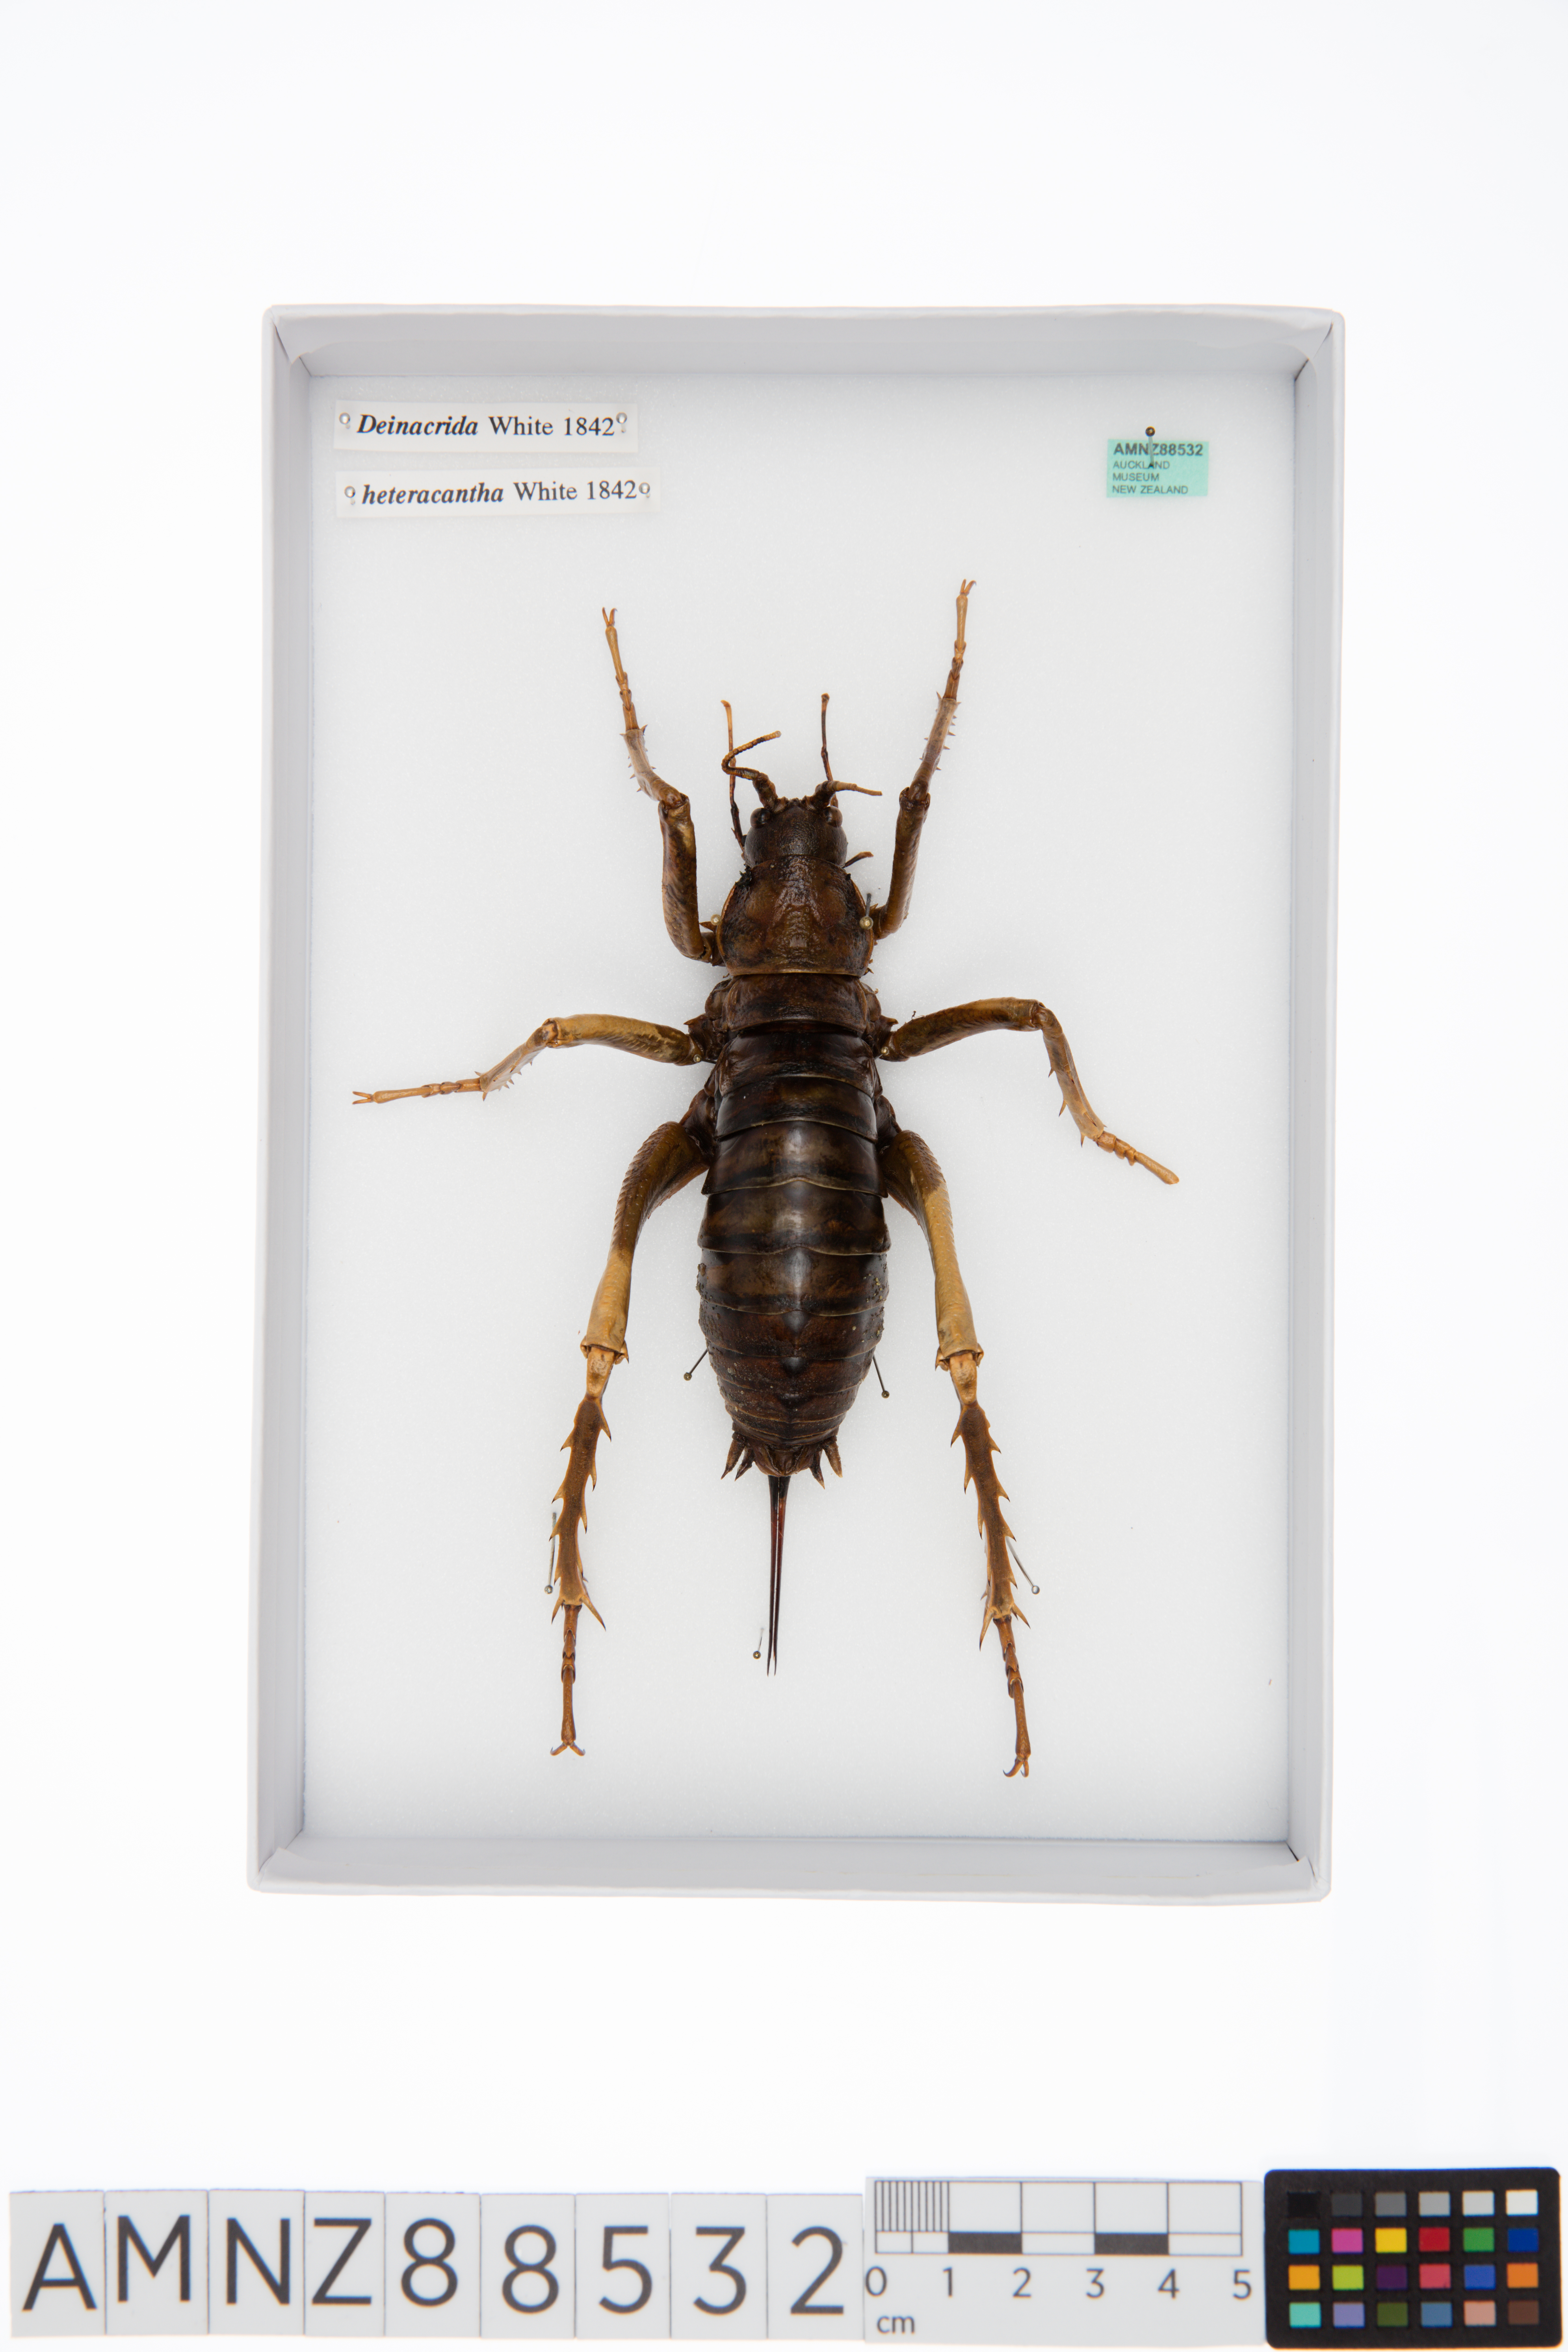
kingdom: Animalia
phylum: Arthropoda
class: Insecta
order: Orthoptera
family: Anostostomatidae
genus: Deinacrida
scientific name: Deinacrida heteracantha
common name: Wetapunga
